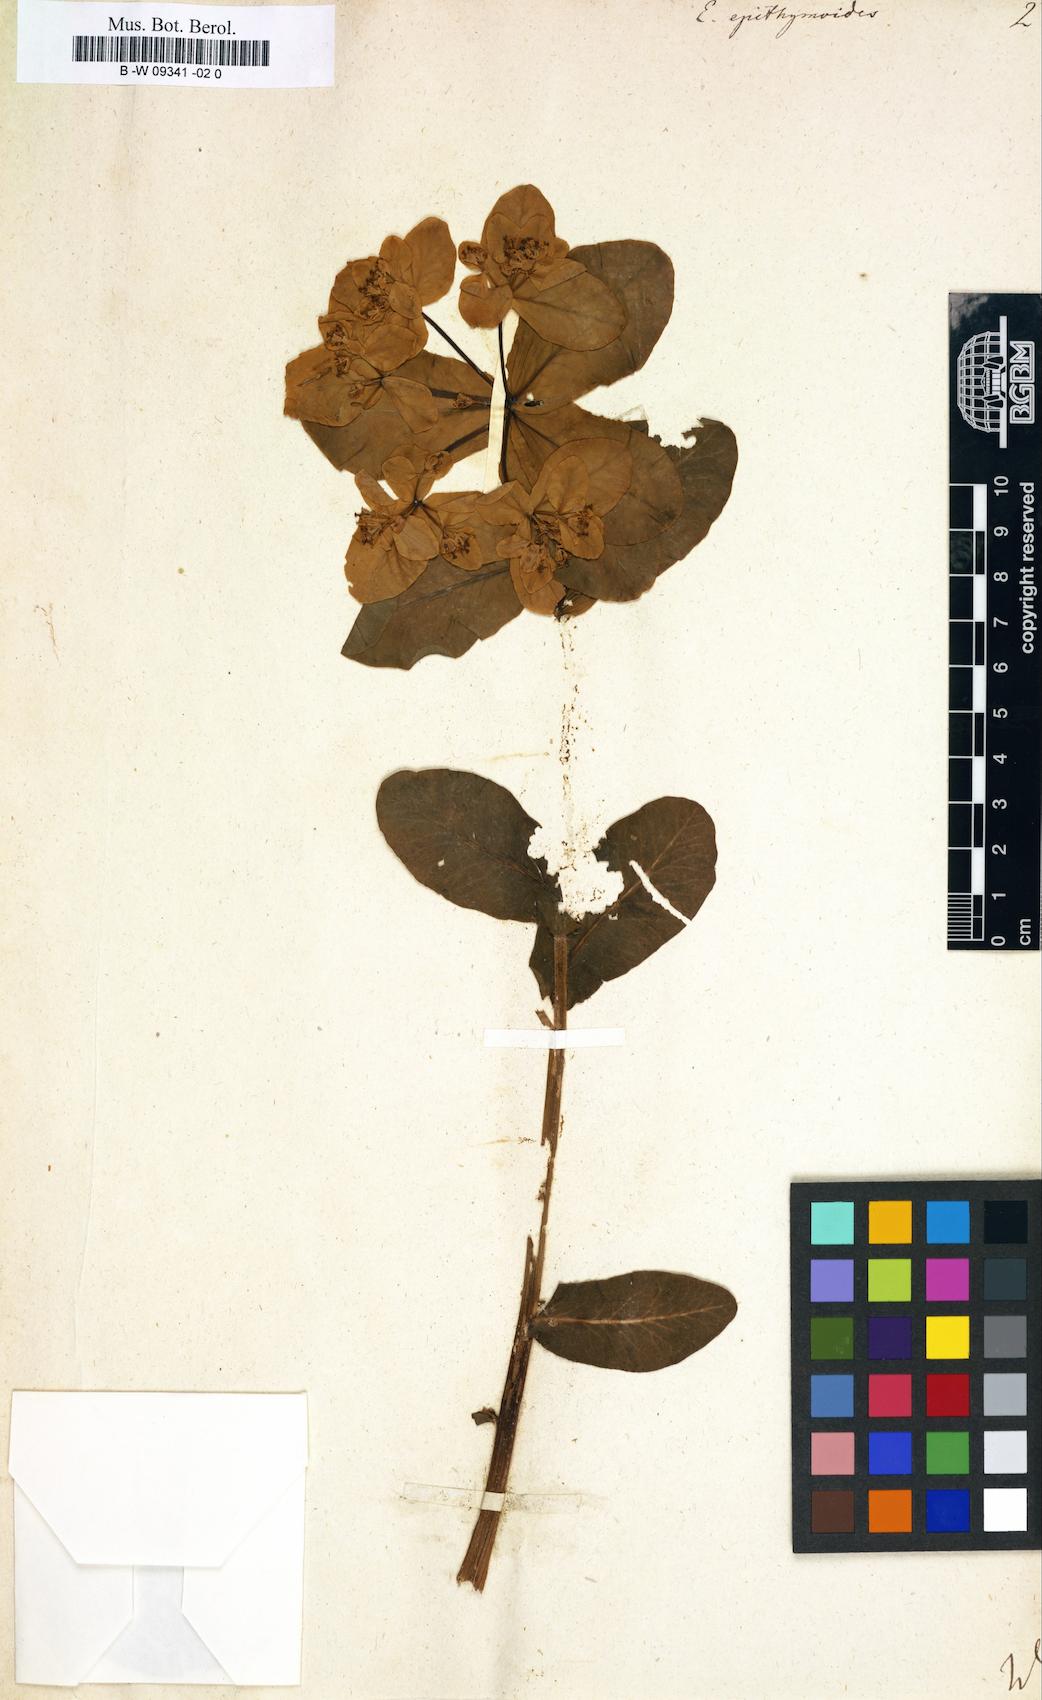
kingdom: Plantae
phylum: Tracheophyta
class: Magnoliopsida
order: Malpighiales
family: Euphorbiaceae
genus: Euphorbia
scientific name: Euphorbia epithymoides
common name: Cushion spurge
